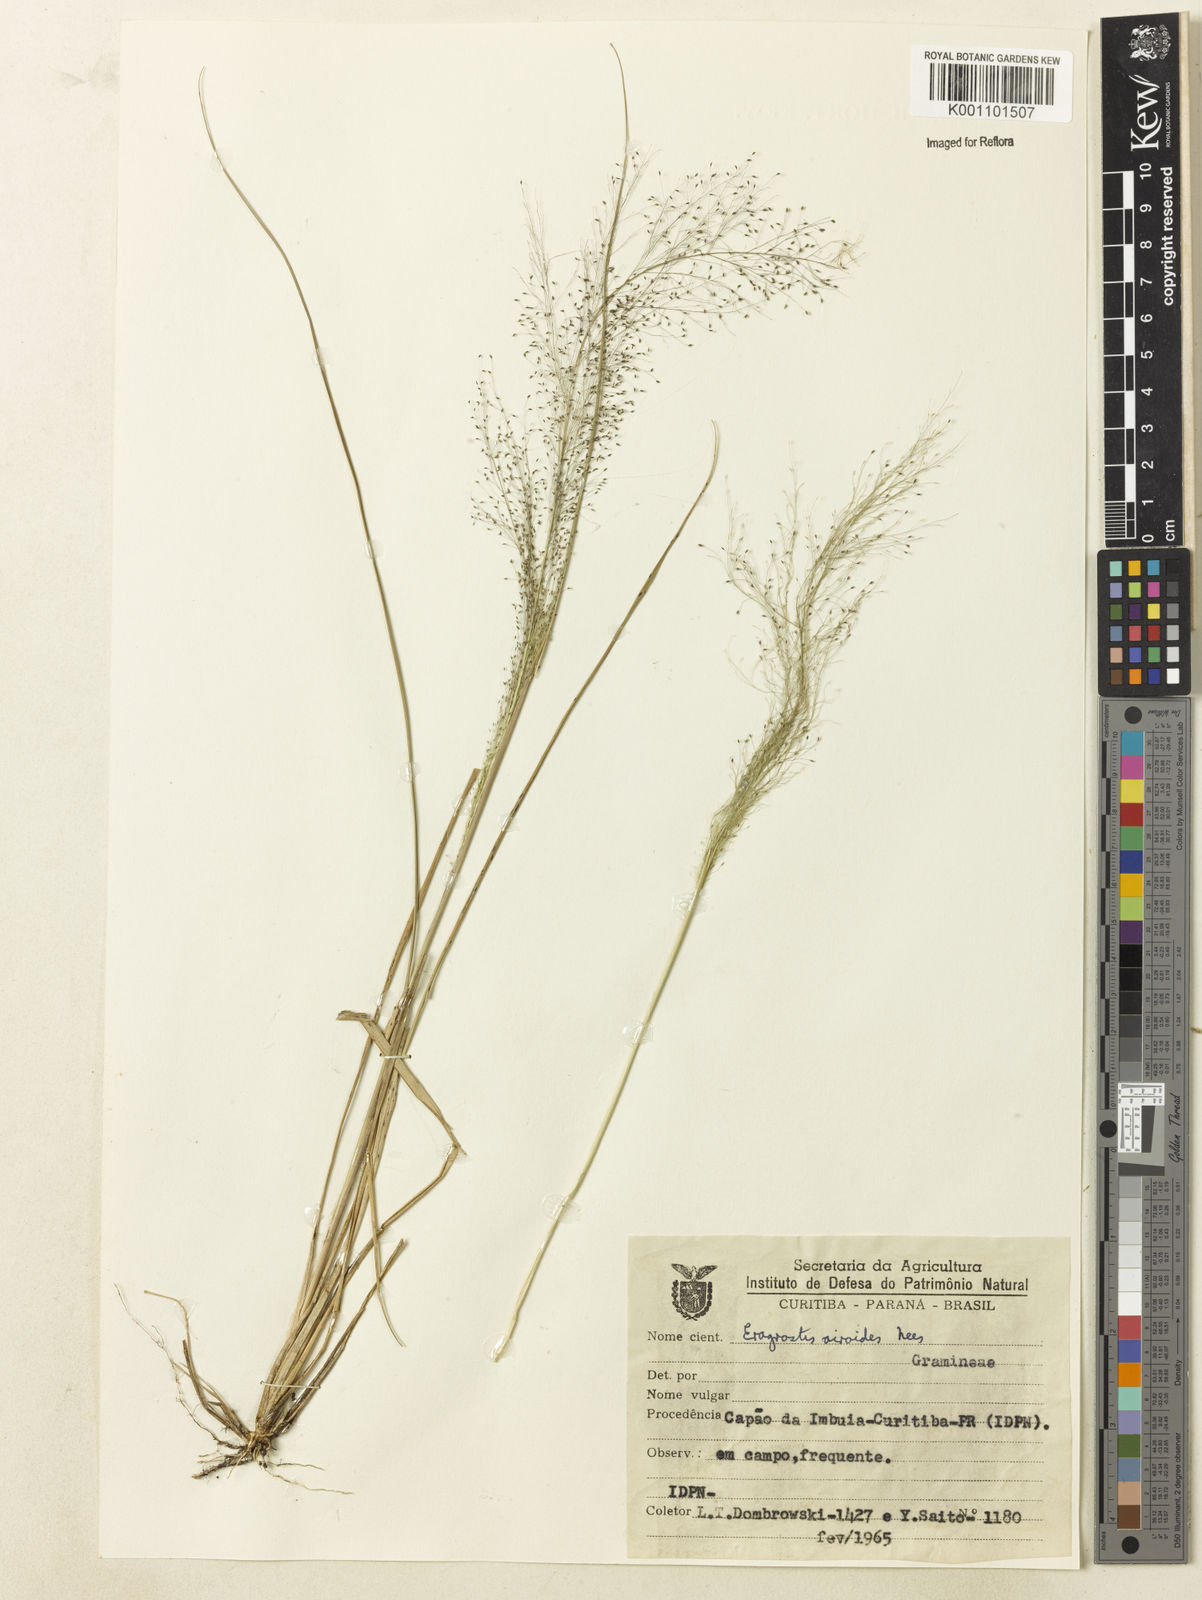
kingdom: Plantae
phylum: Tracheophyta
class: Liliopsida
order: Poales
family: Poaceae
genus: Eragrostis
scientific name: Eragrostis airoides
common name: Darnel lovegrass
